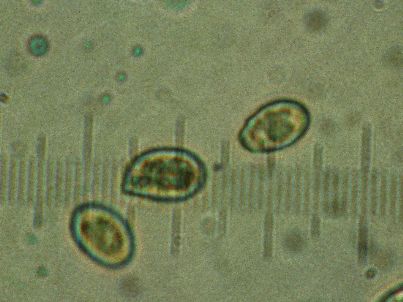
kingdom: Fungi
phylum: Basidiomycota
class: Agaricomycetes
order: Agaricales
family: Cortinariaceae
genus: Cortinarius
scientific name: Cortinarius
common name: pelargonie-slørhat
